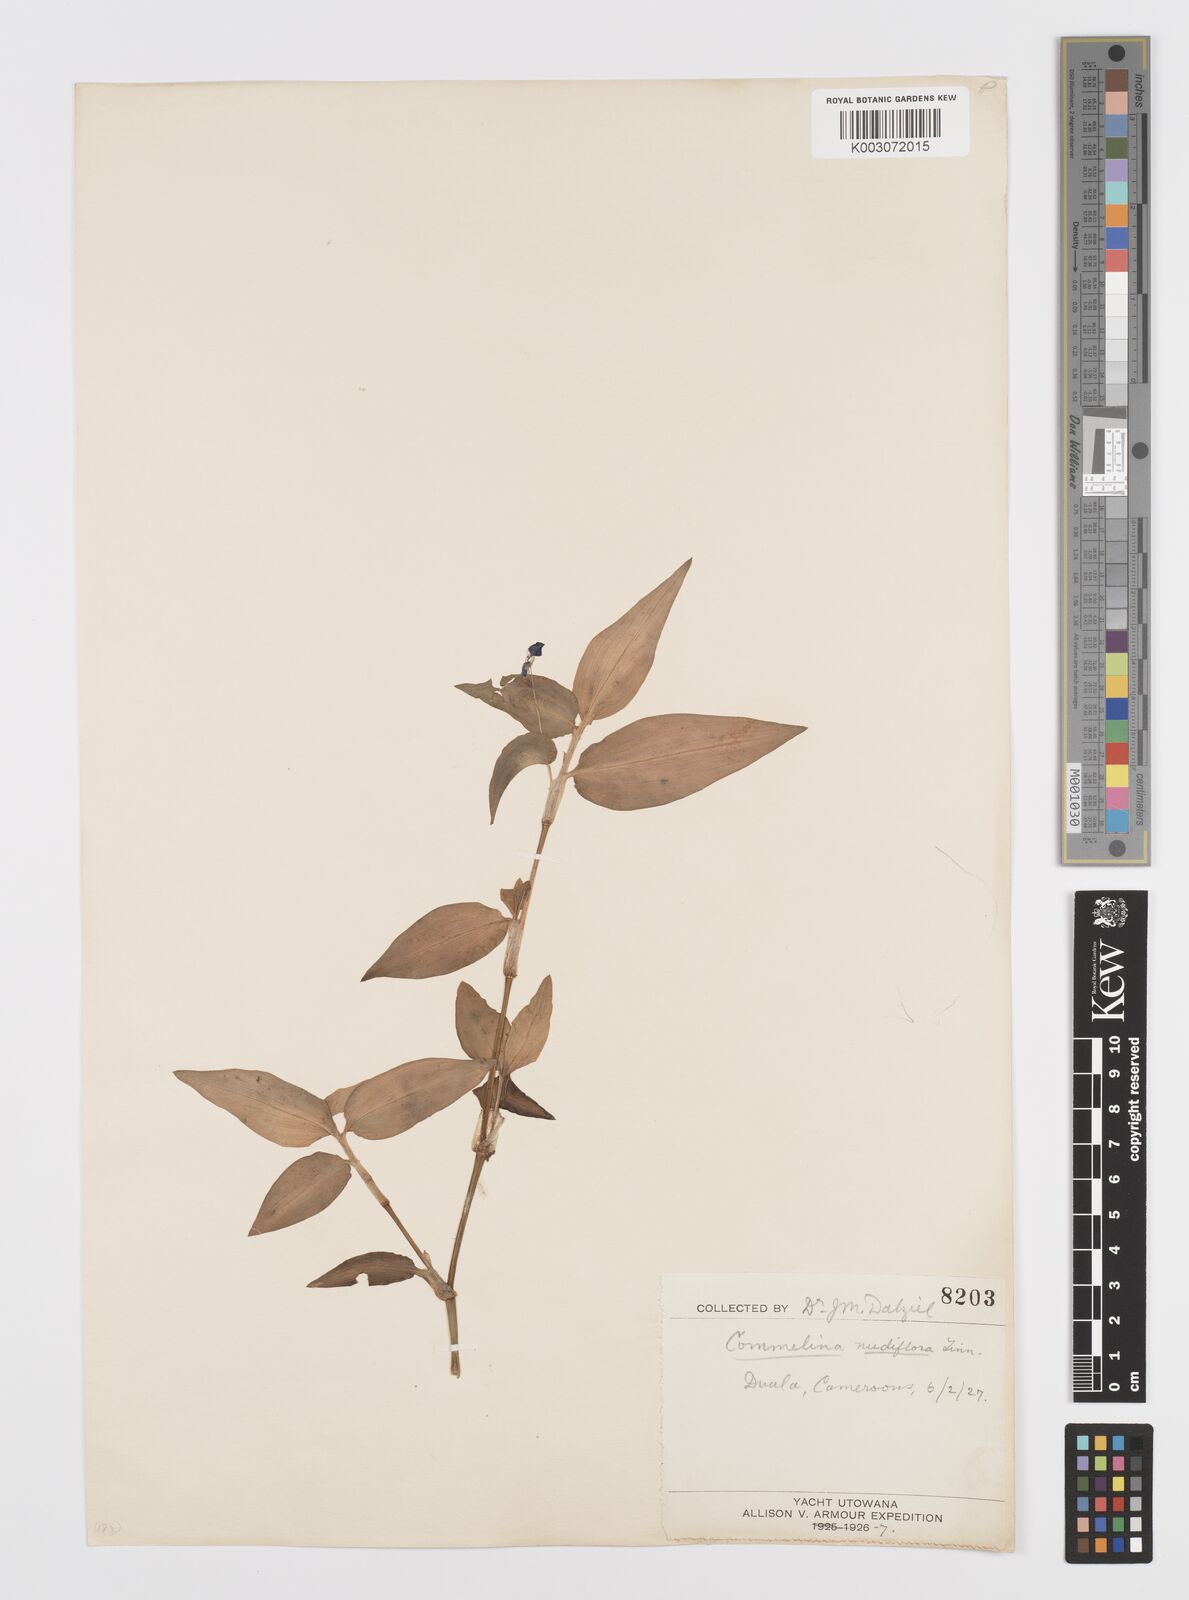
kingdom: Plantae
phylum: Tracheophyta
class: Liliopsida
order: Commelinales
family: Commelinaceae
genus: Commelina
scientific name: Commelina diffusa
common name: Climbing dayflower
